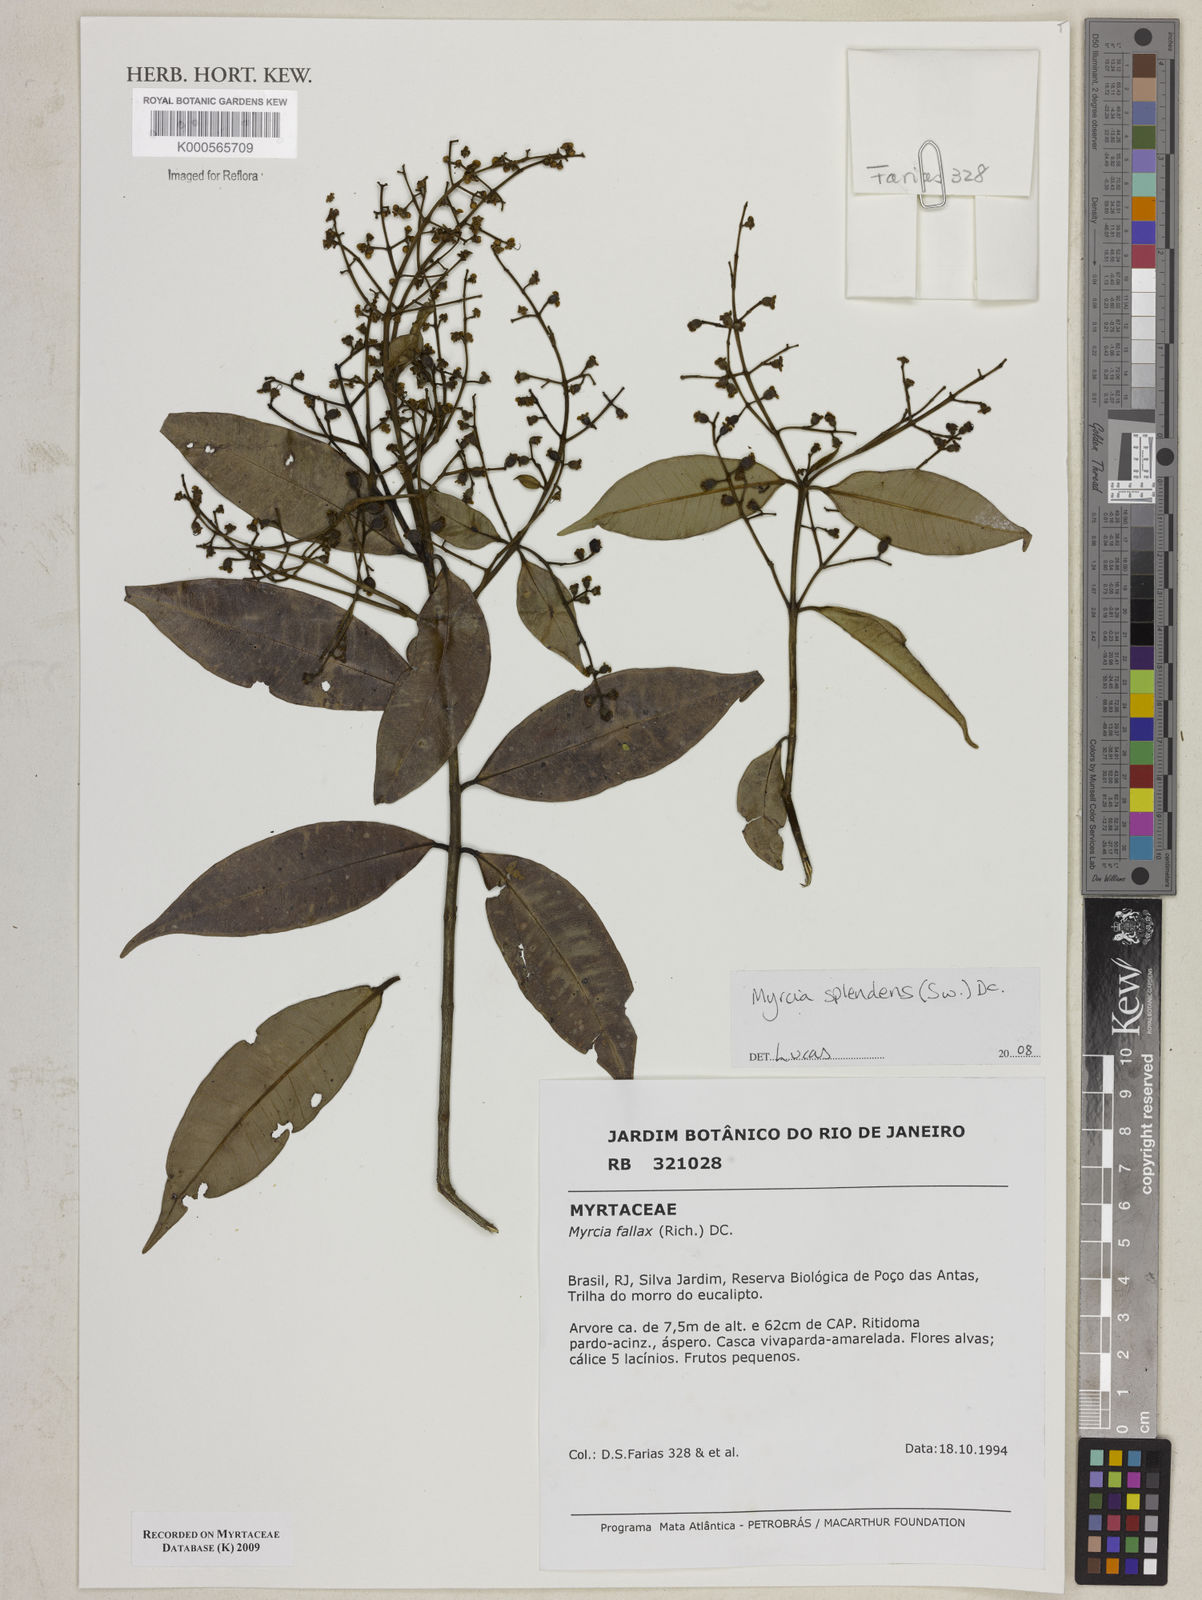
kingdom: Plantae
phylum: Tracheophyta
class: Magnoliopsida
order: Myrtales
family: Myrtaceae
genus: Myrcia
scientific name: Myrcia splendens
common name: Surinam cherry
